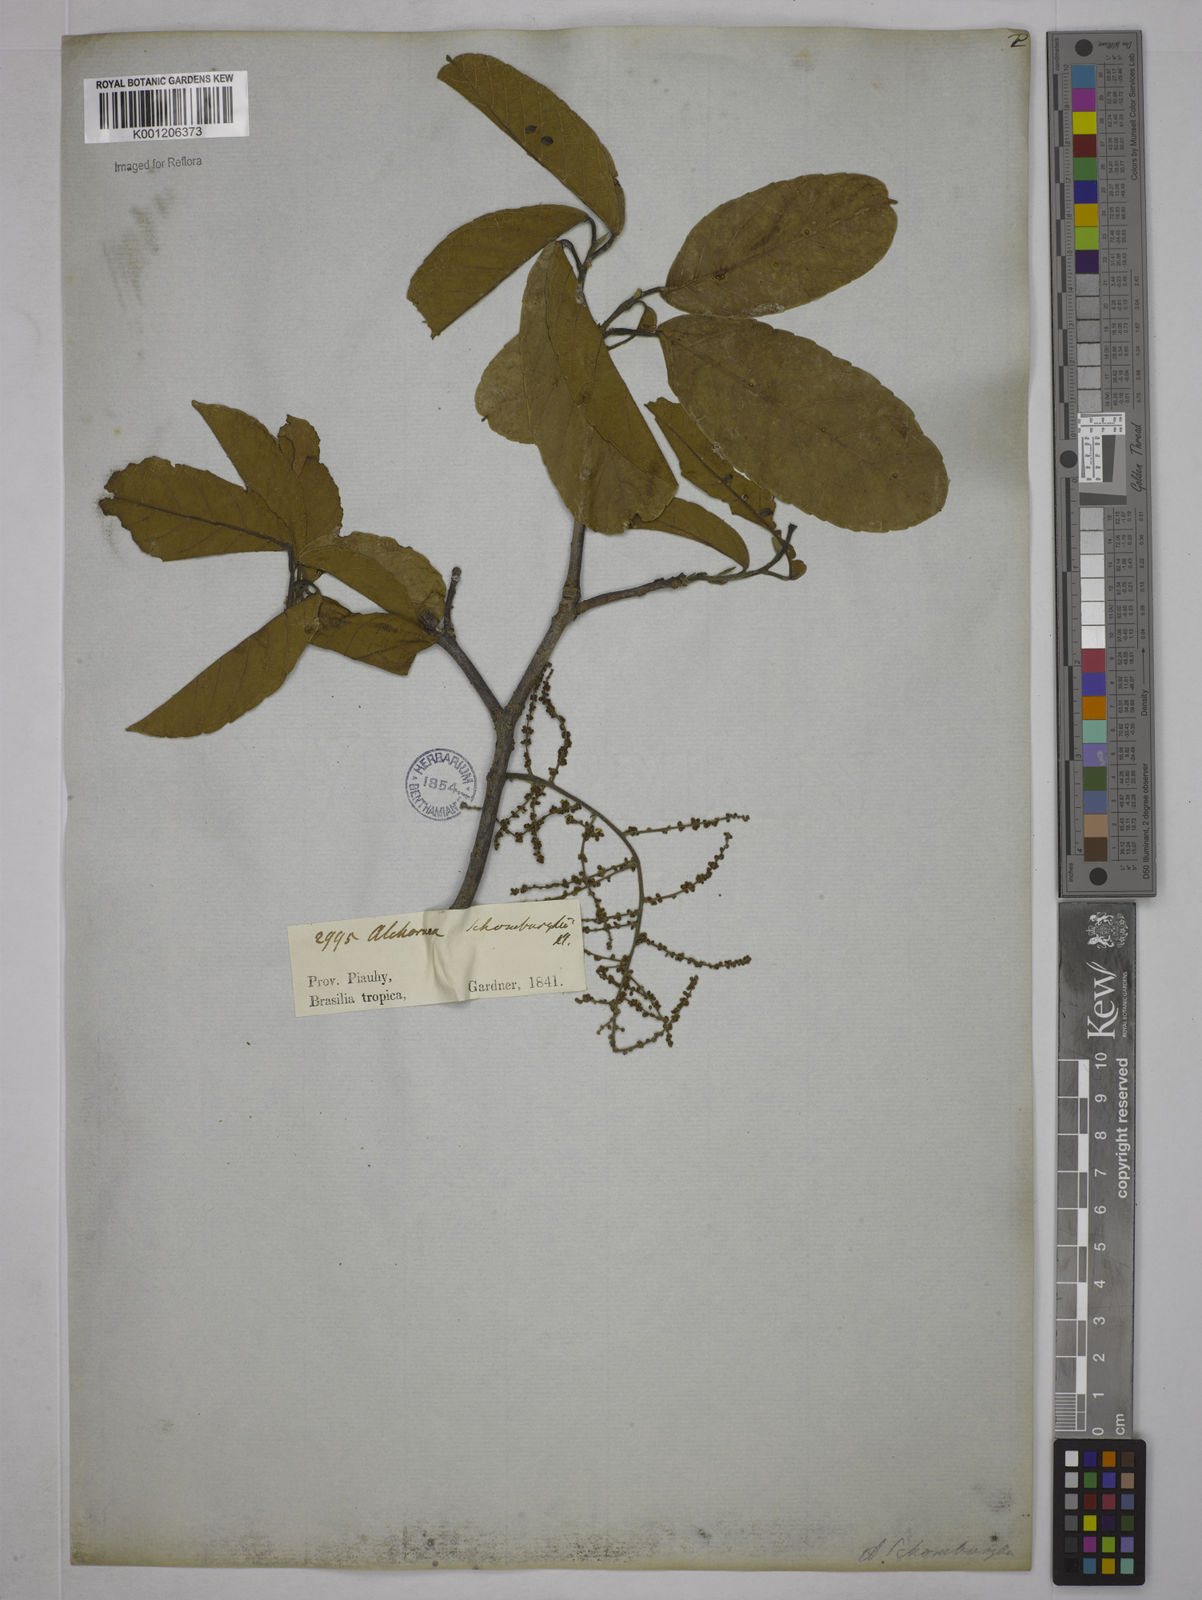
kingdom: Plantae
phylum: Tracheophyta
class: Magnoliopsida
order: Malpighiales
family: Euphorbiaceae
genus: Alchornea
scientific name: Alchornea
